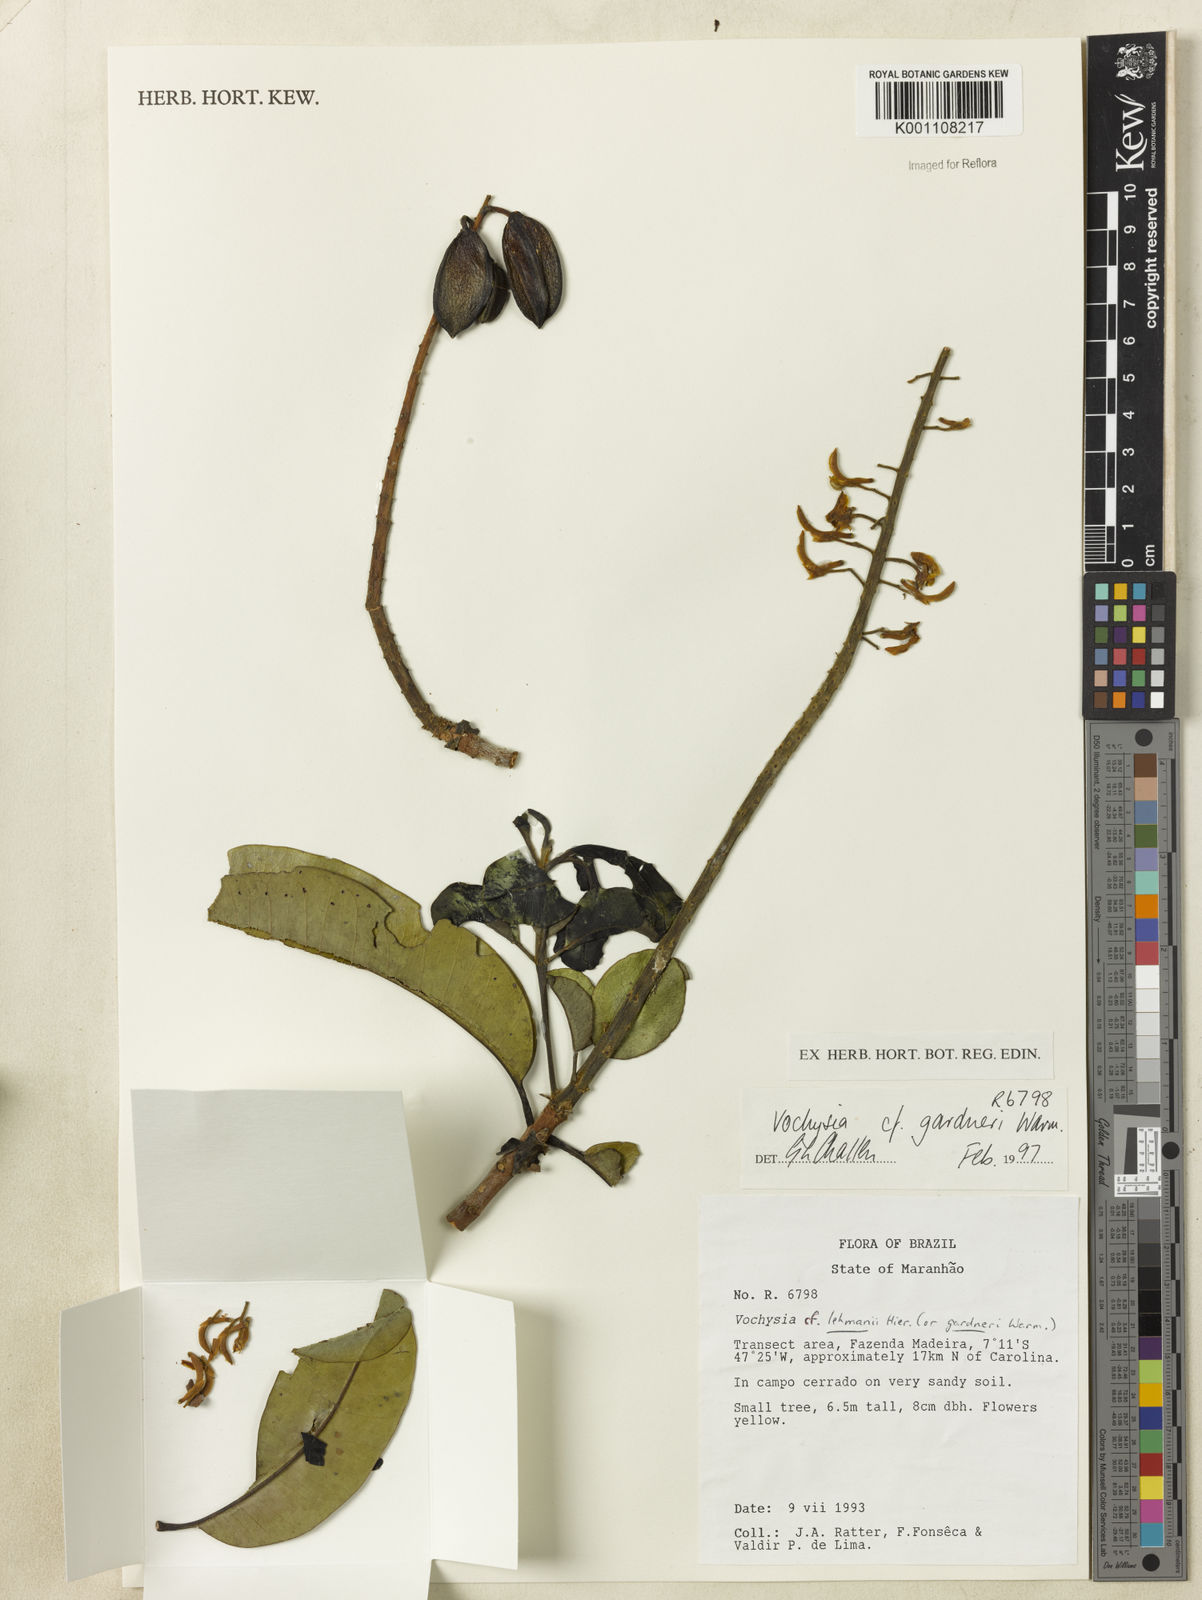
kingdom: Plantae
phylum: Tracheophyta
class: Magnoliopsida
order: Myrtales
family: Vochysiaceae
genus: Vochysia
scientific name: Vochysia gardneri
